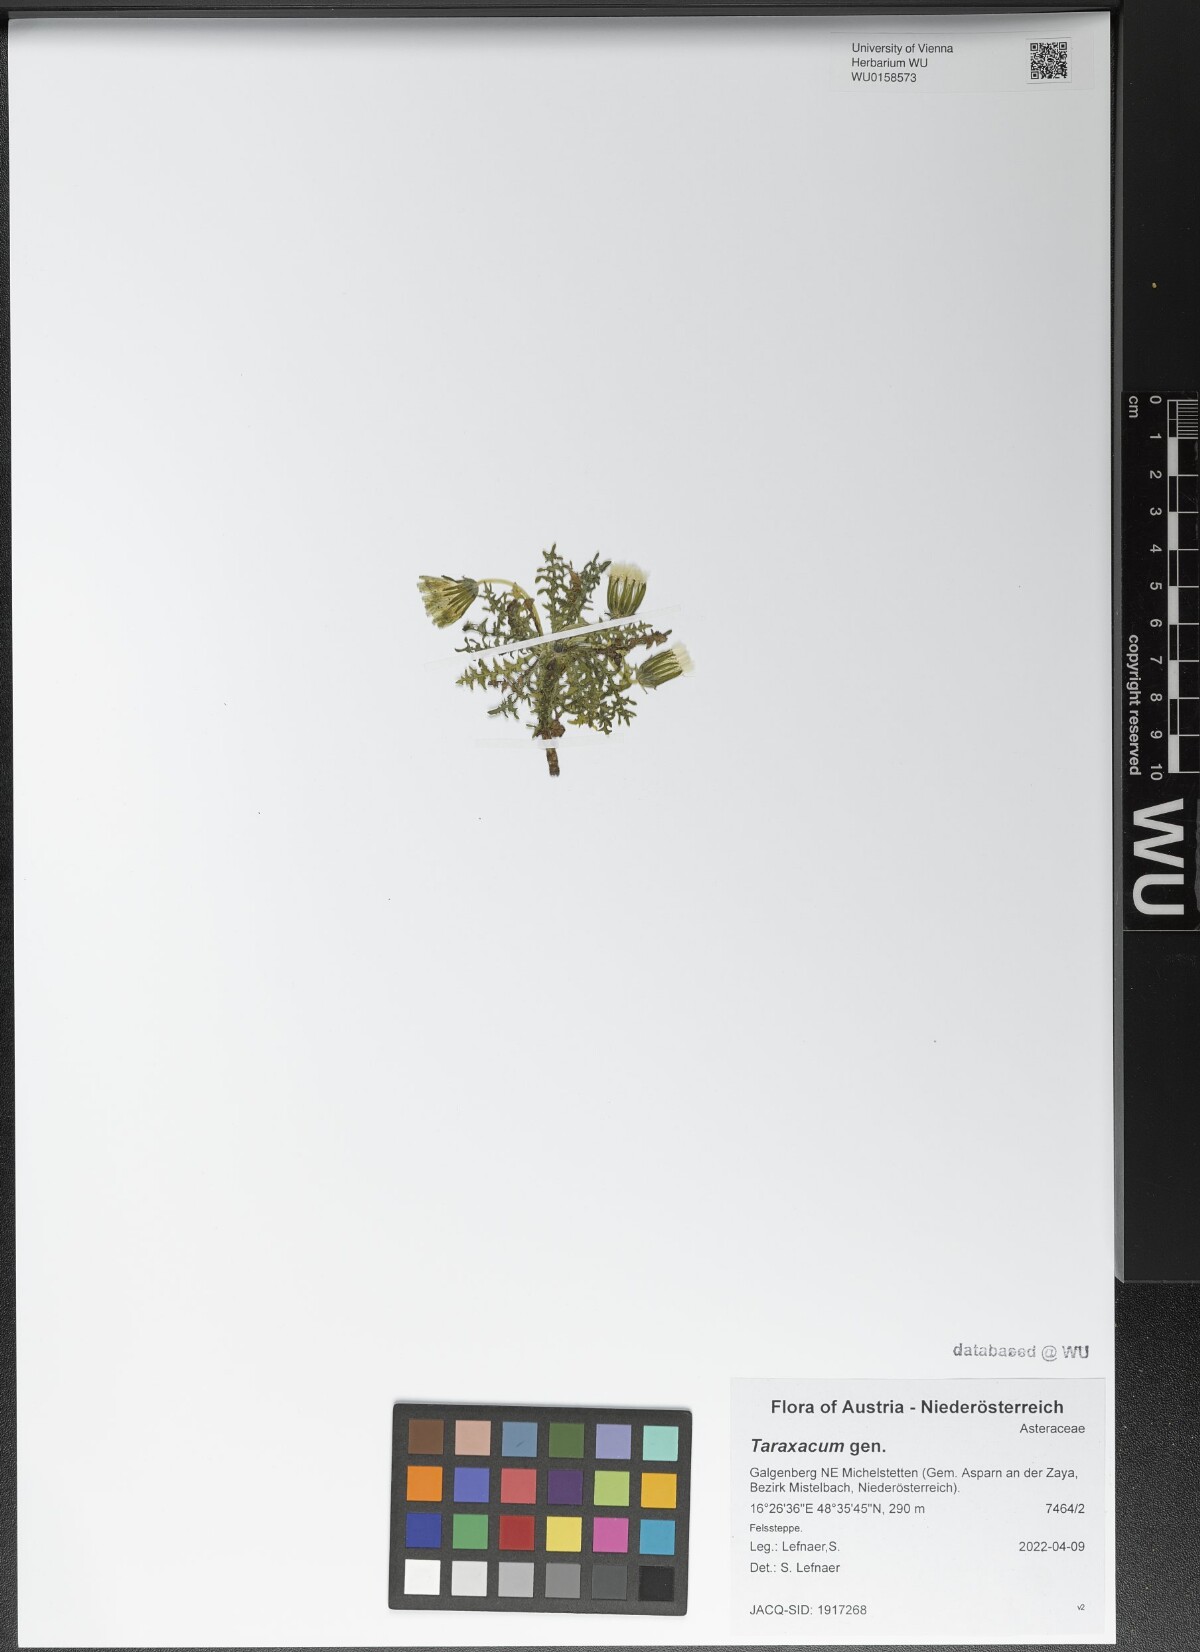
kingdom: Plantae
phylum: Tracheophyta
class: Magnoliopsida
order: Asterales
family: Asteraceae
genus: Taraxacum
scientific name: Taraxacum
